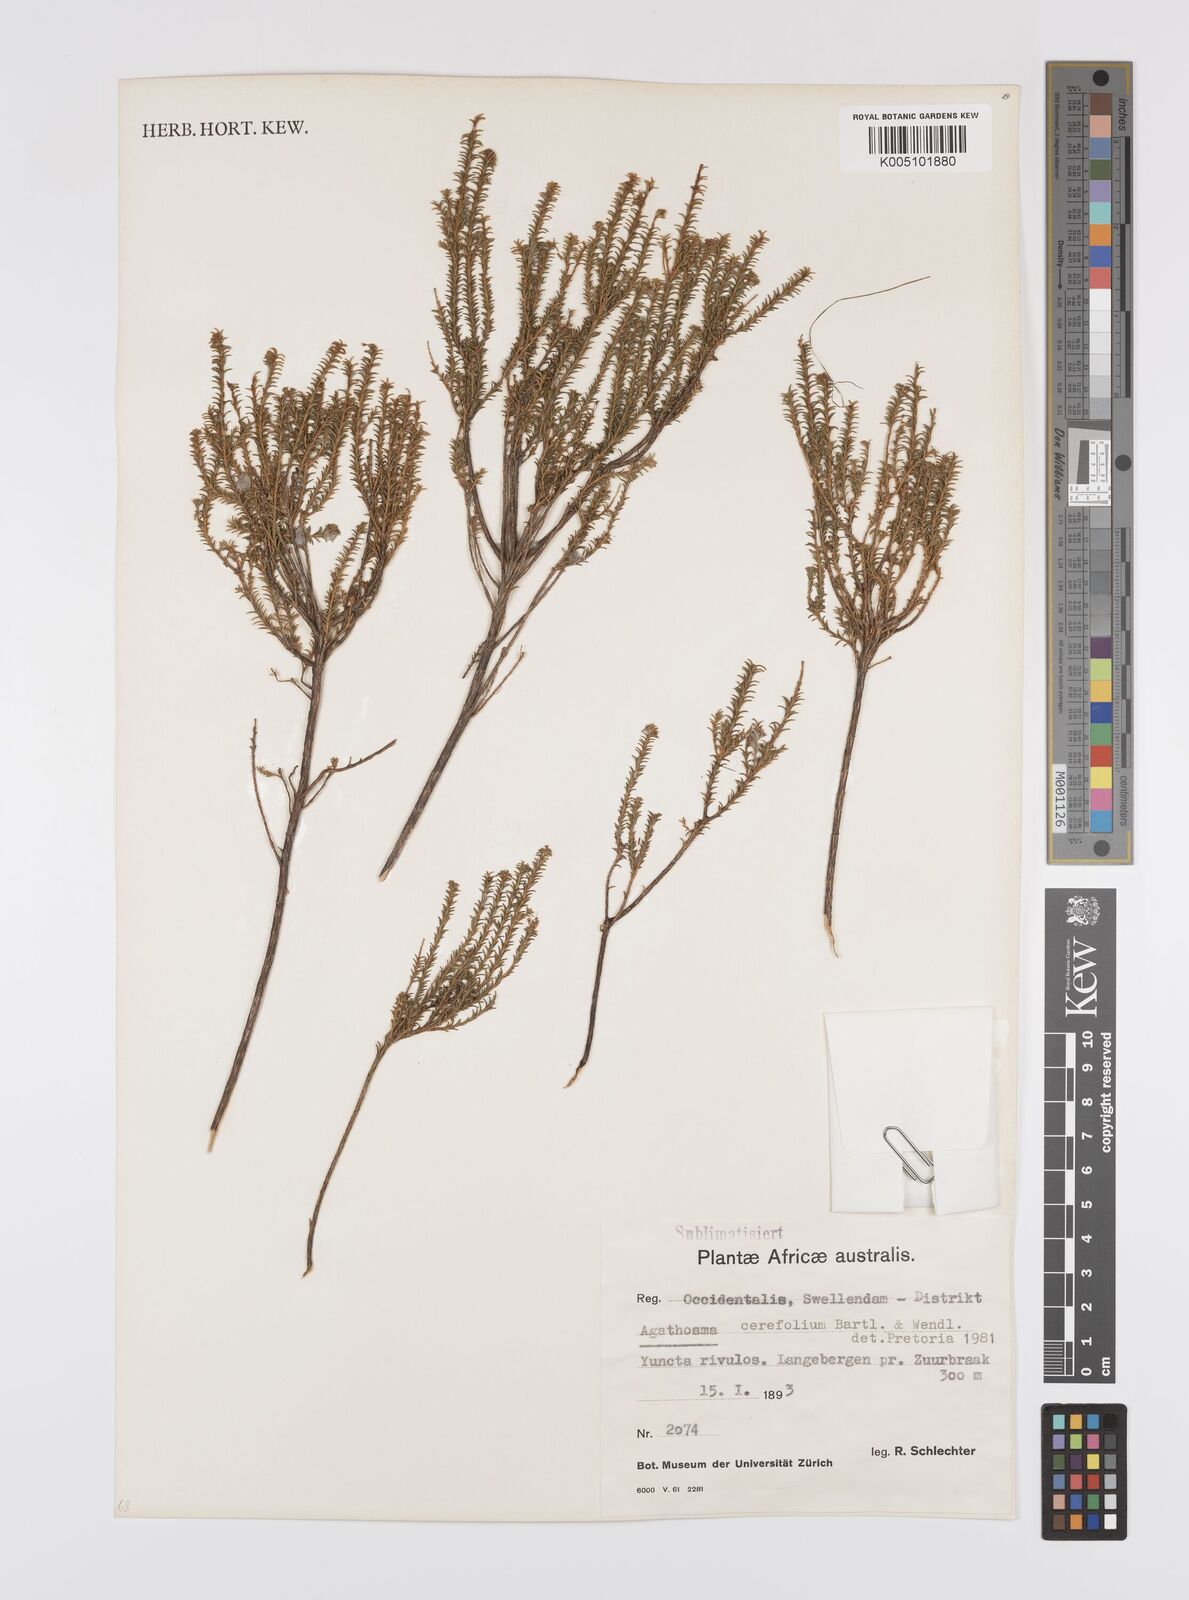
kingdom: Plantae
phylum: Tracheophyta
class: Magnoliopsida
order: Sapindales
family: Rutaceae
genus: Agathosma
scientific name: Agathosma cerefolia
